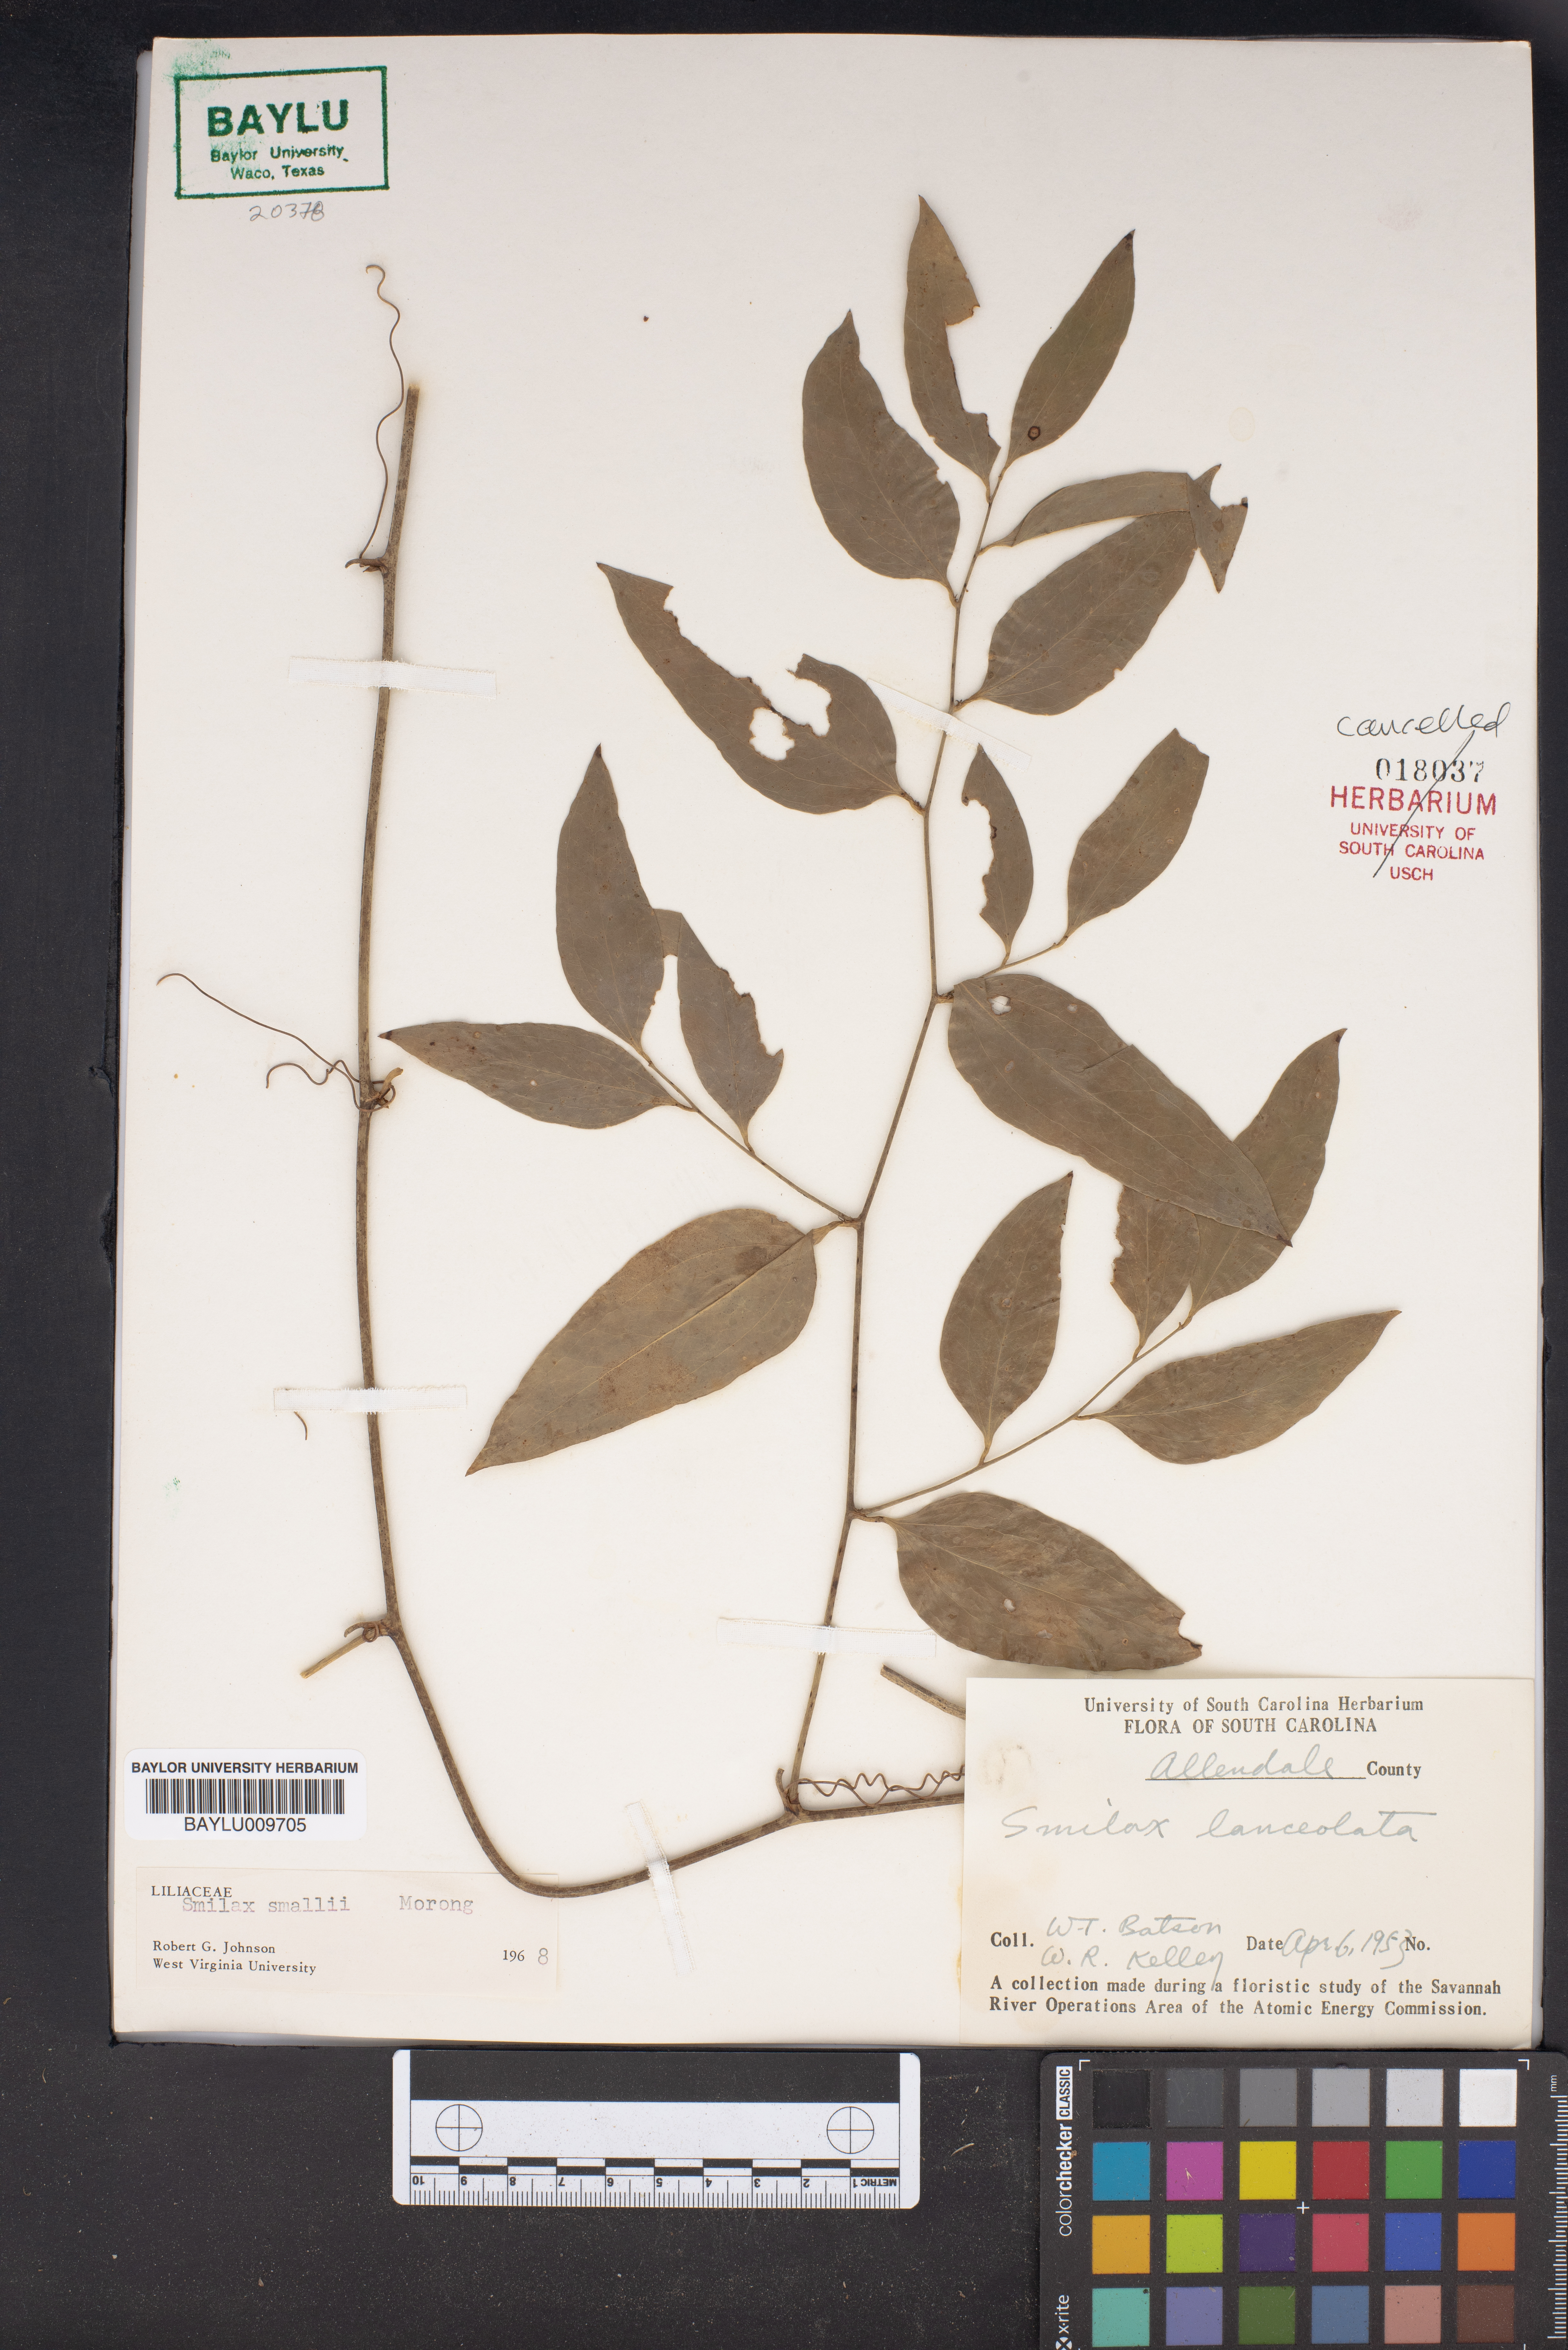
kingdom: Plantae
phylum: Tracheophyta
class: Liliopsida
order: Liliales
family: Smilacaceae
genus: Smilax
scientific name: Smilax laurifolia
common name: Bamboovine
